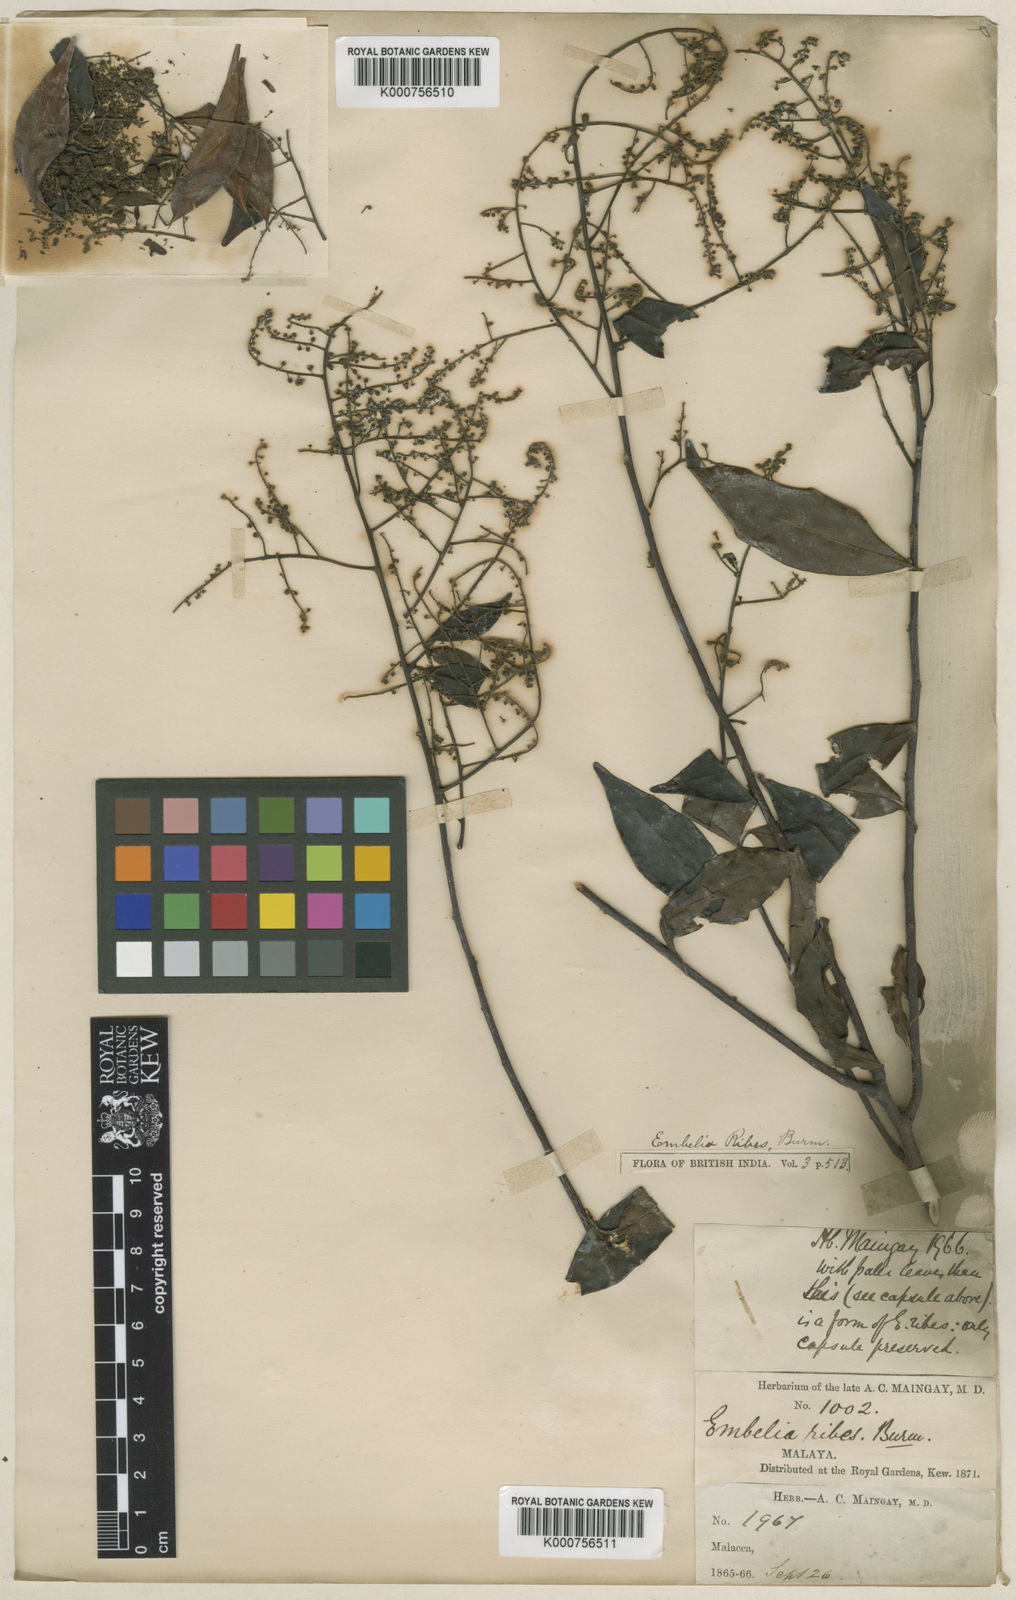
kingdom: Plantae
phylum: Tracheophyta
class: Magnoliopsida
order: Ericales
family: Primulaceae
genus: Embelia
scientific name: Embelia ribes
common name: Vidanga
